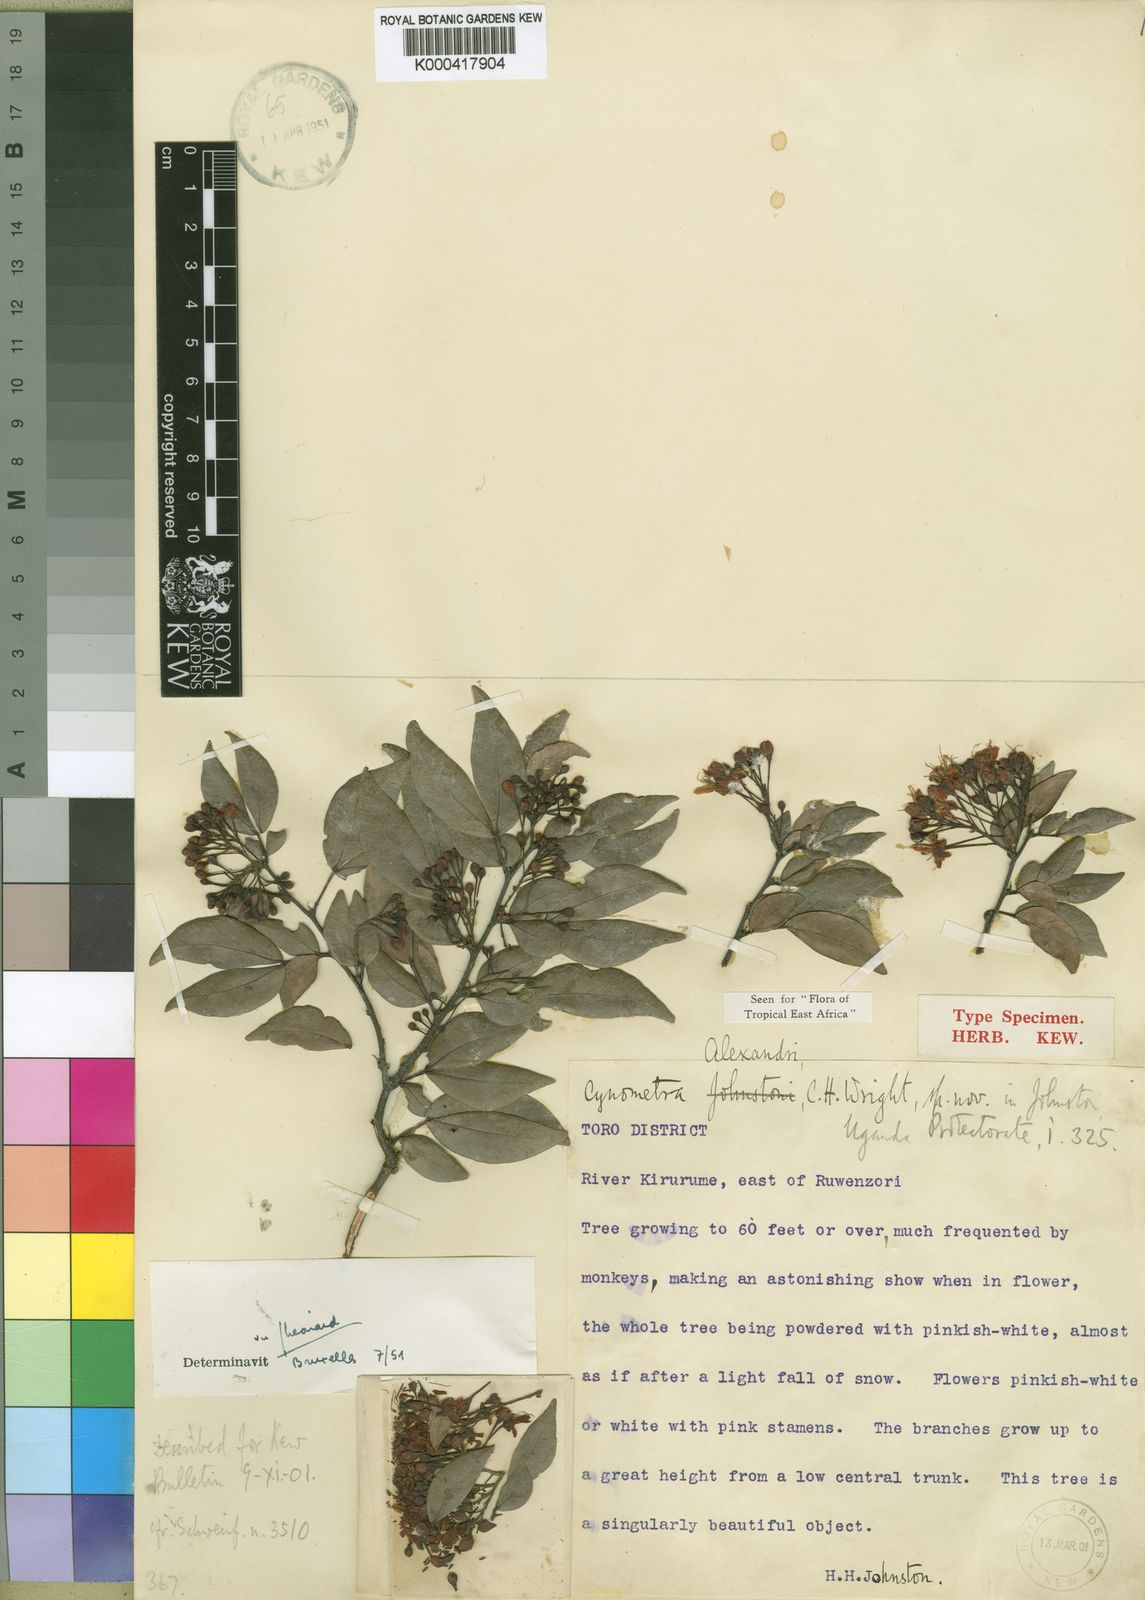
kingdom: Plantae
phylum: Tracheophyta
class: Magnoliopsida
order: Fabales
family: Fabaceae
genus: Cynometra
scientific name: Cynometra alexandri
